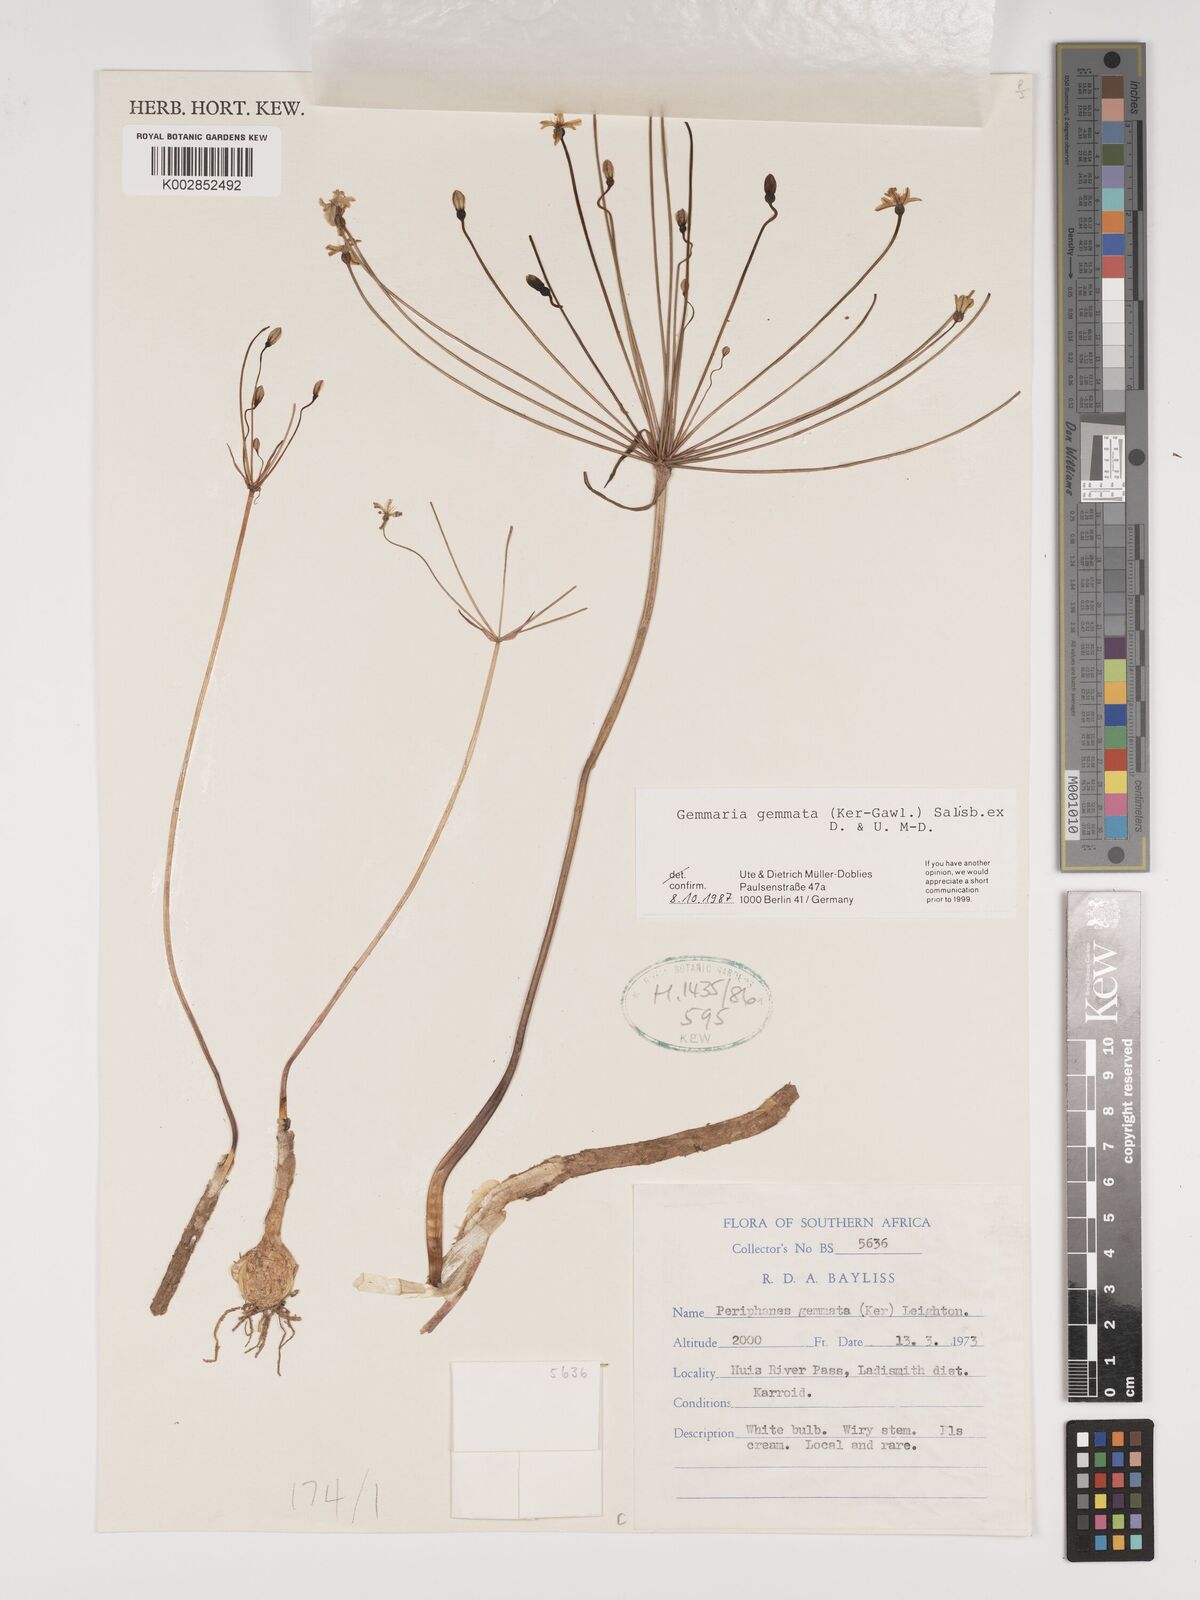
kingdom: Plantae
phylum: Tracheophyta
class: Liliopsida
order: Asparagales
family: Amaryllidaceae
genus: Strumaria
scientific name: Strumaria gemmata
